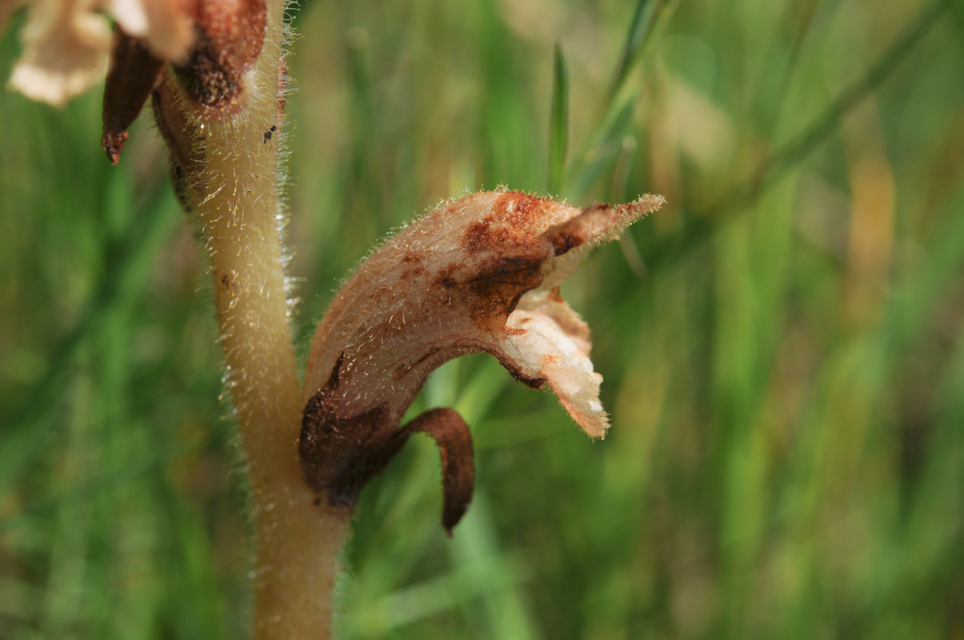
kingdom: Plantae
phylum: Tracheophyta
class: Magnoliopsida
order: Lamiales
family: Orobanchaceae
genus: Orobanche
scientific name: Orobanche caryophyllacea
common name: Bedstraw broomrape
